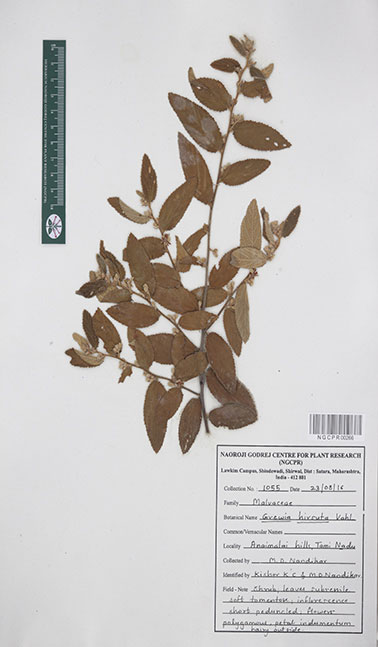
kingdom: Plantae
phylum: Tracheophyta
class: Magnoliopsida
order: Malvales
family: Malvaceae
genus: Grewia
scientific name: Grewia hirsuta
